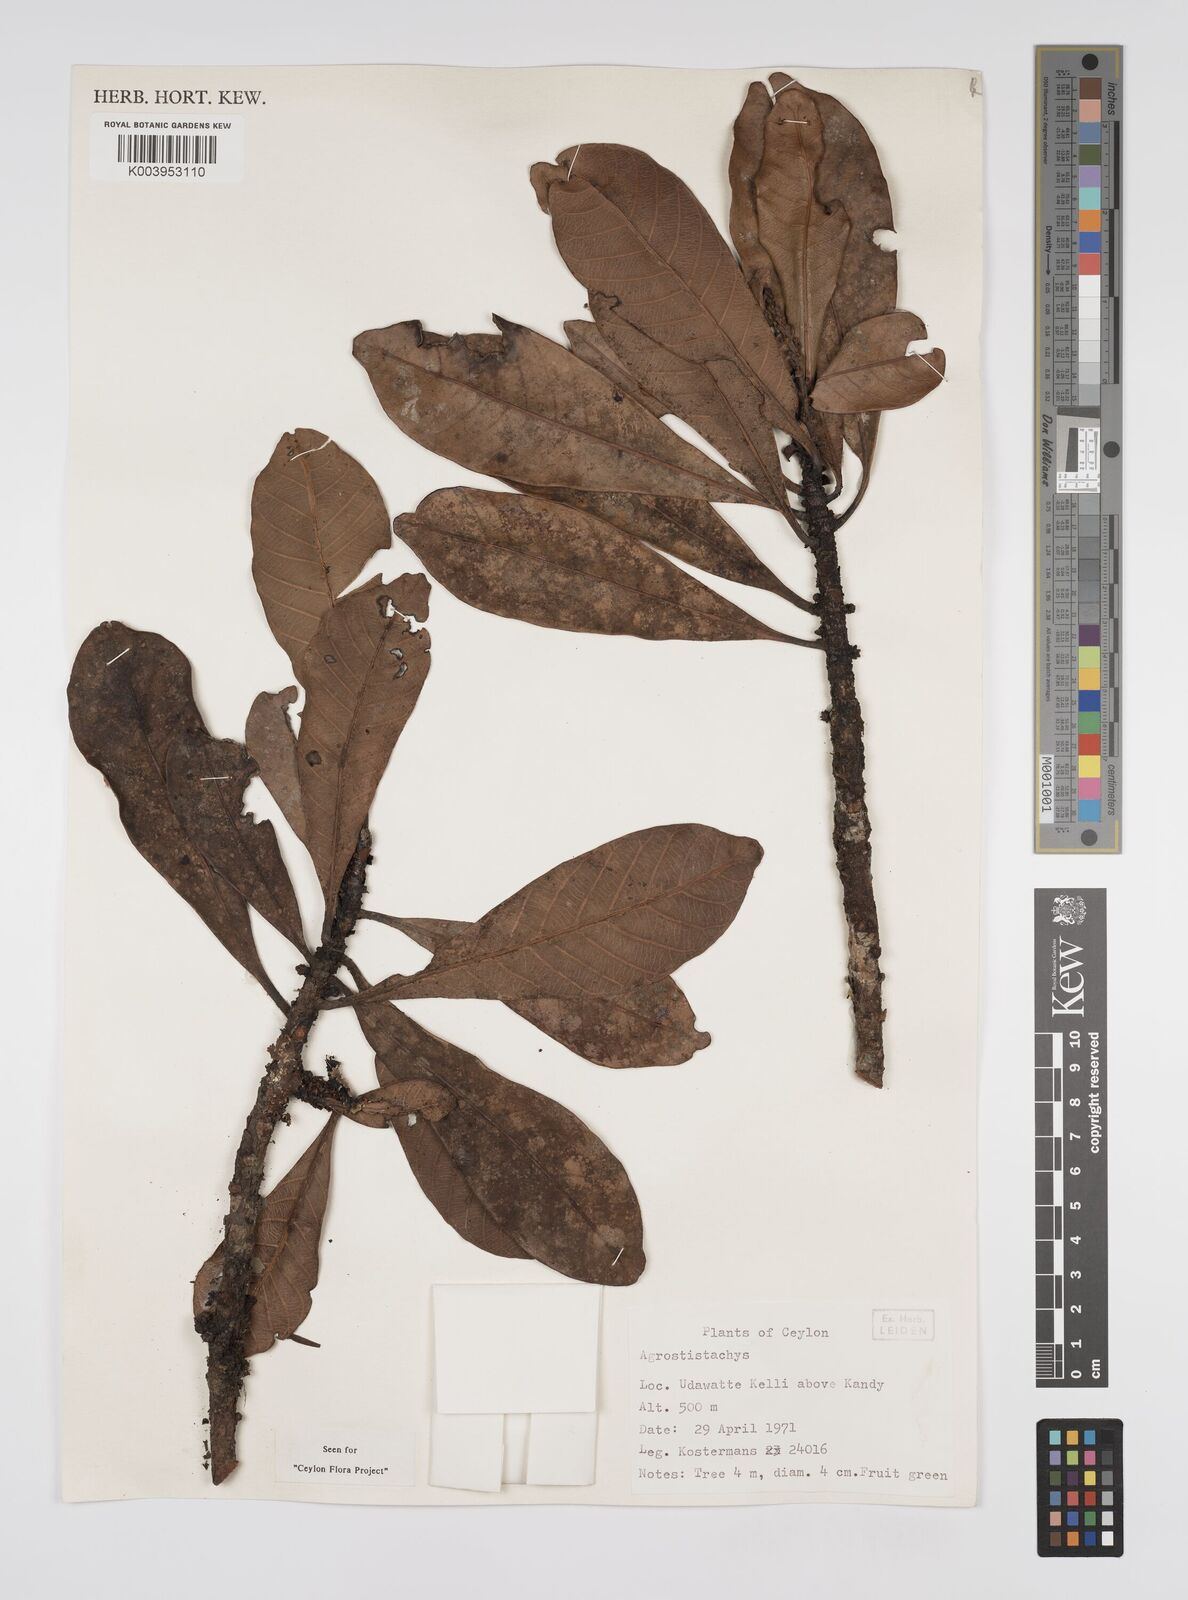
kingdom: Plantae
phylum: Tracheophyta
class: Magnoliopsida
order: Malpighiales
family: Euphorbiaceae
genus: Agrostistachys
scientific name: Agrostistachys borneensis
